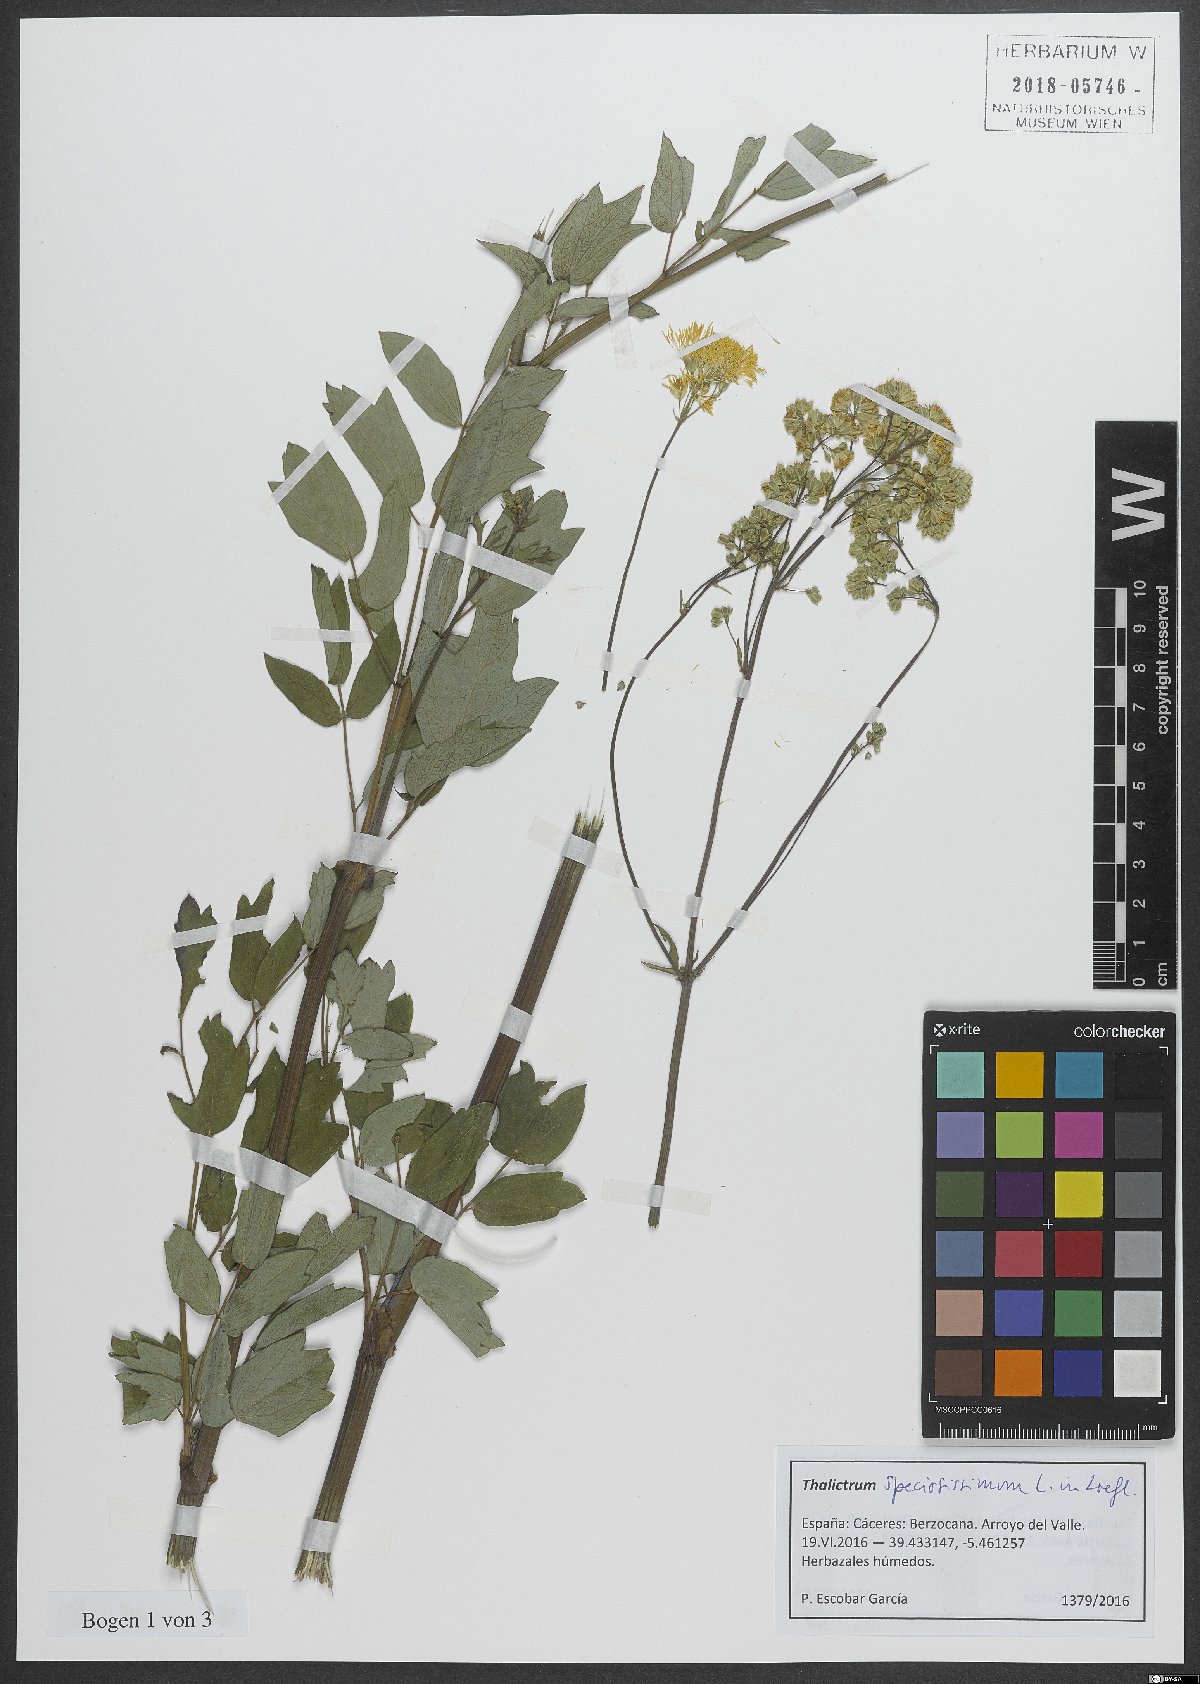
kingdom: Plantae
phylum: Tracheophyta
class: Magnoliopsida
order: Ranunculales
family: Ranunculaceae
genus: Thalictrum
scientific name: Thalictrum speciosissimum
